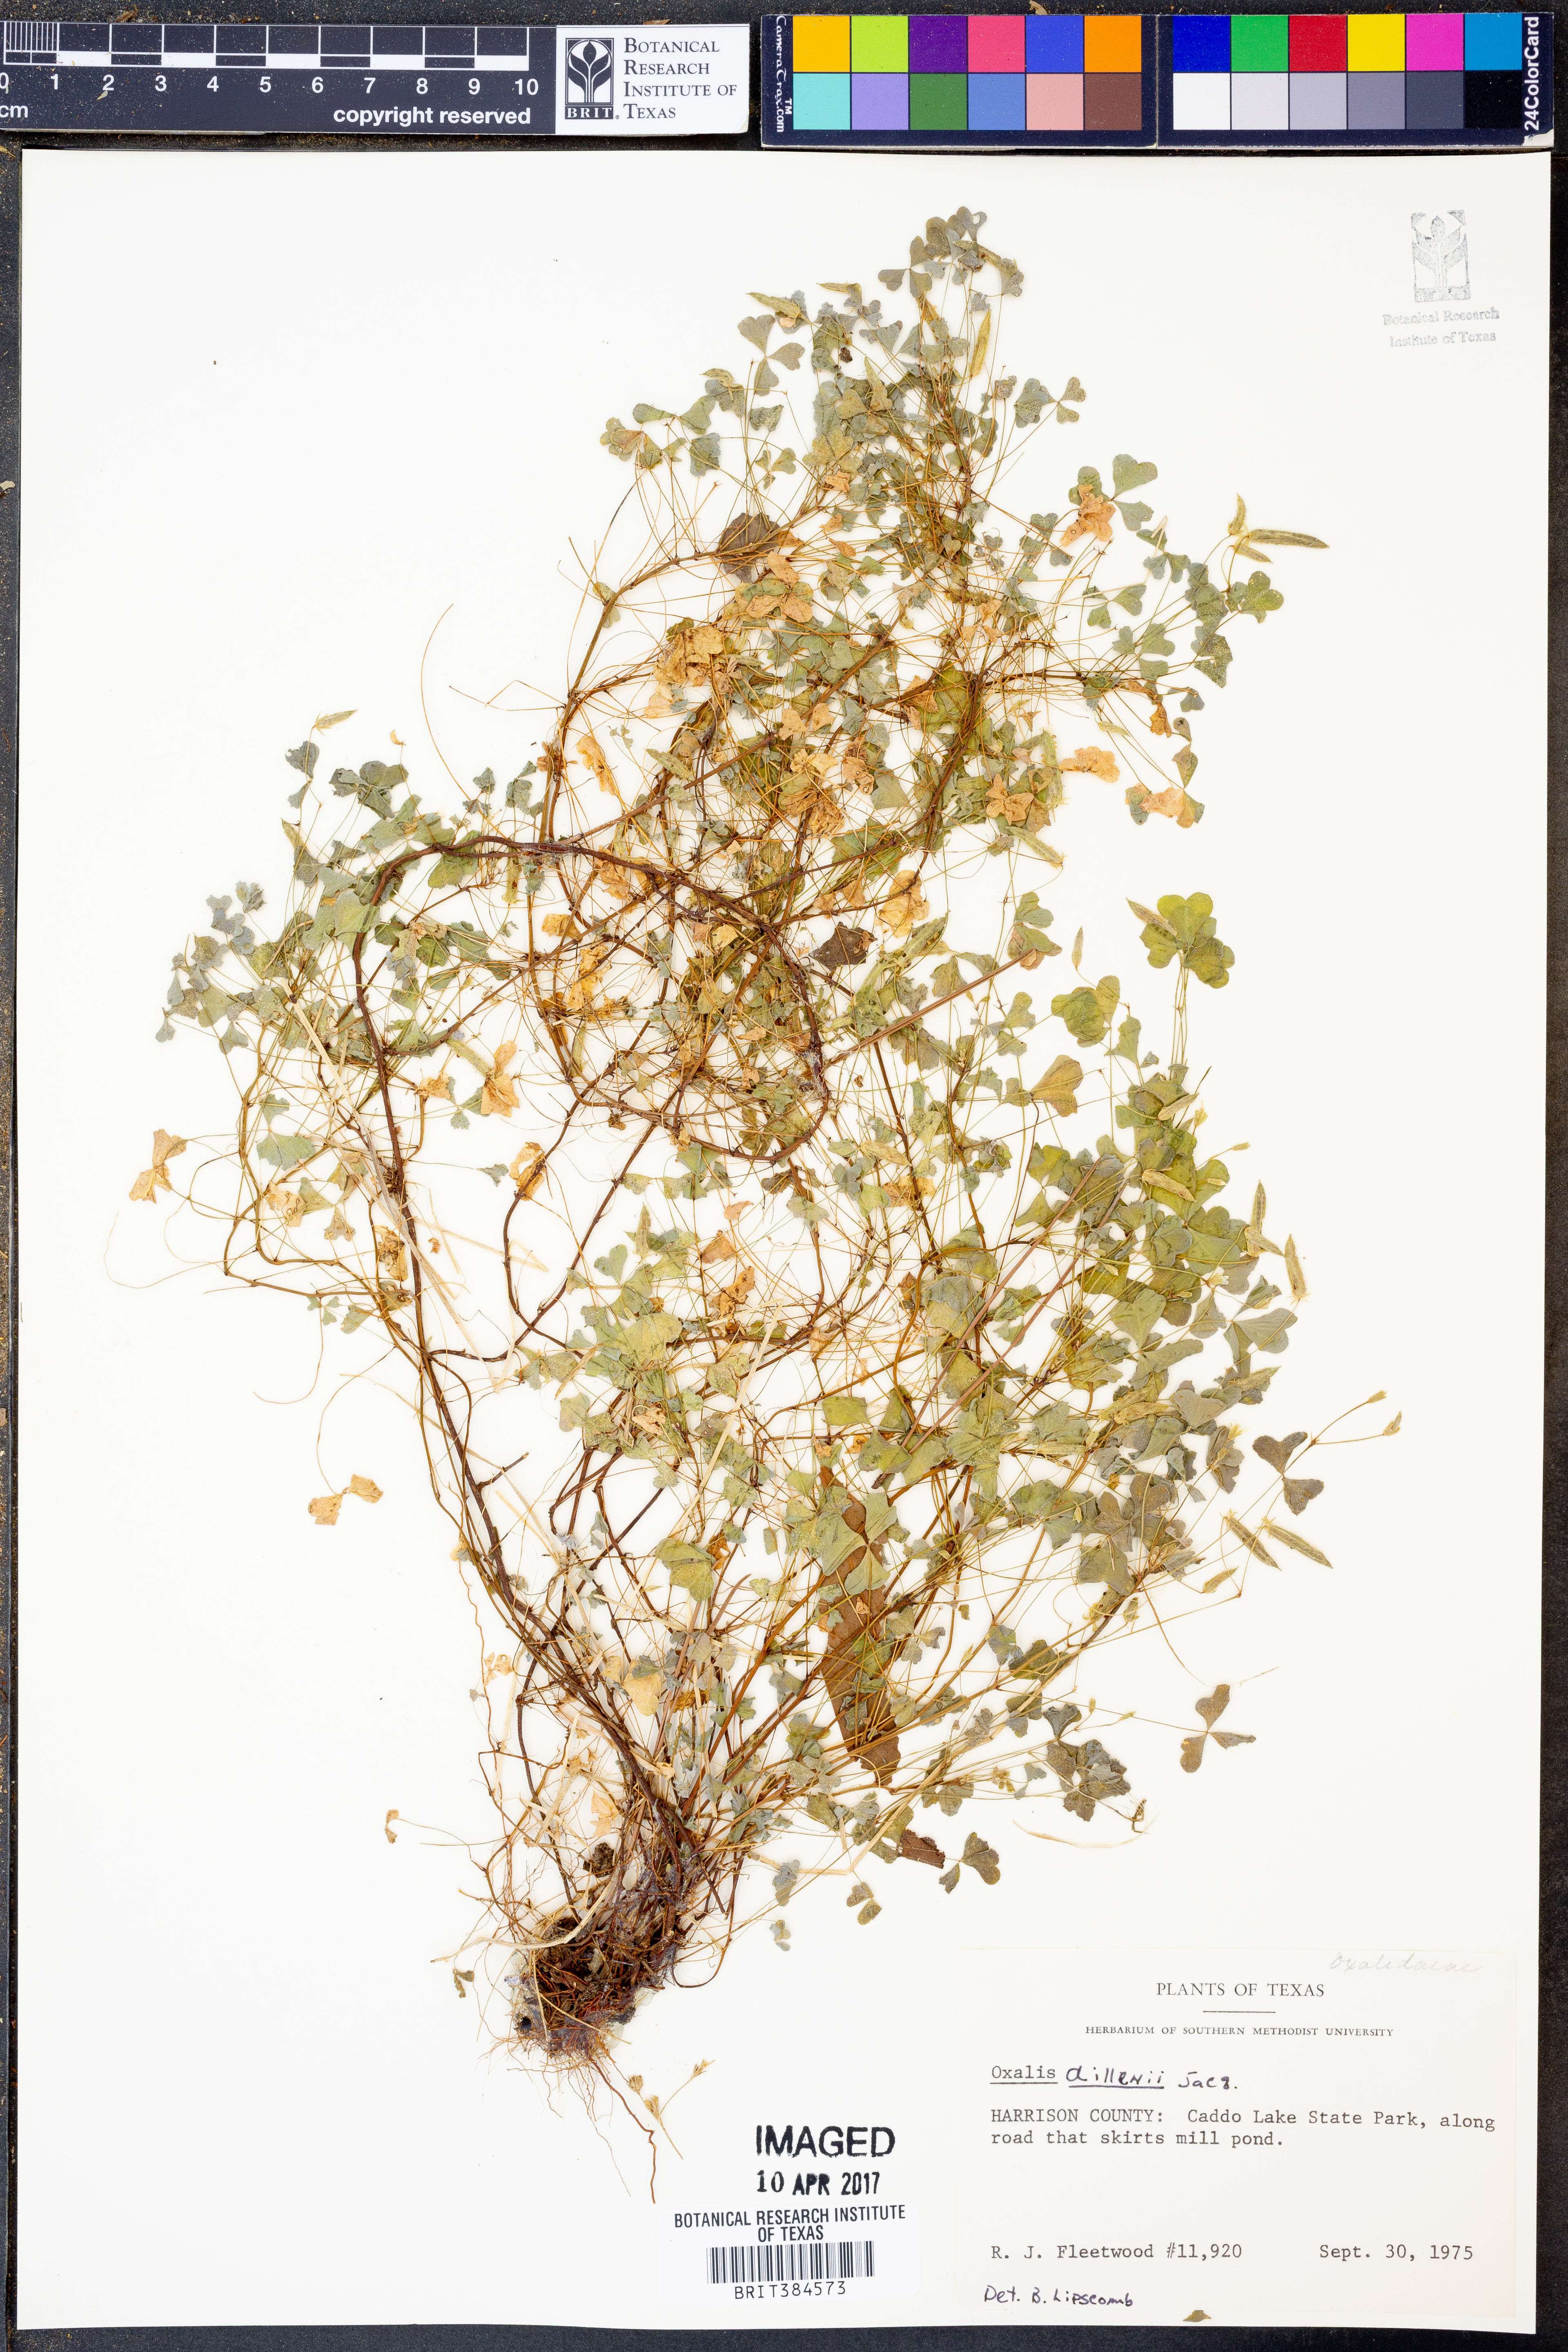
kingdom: Plantae
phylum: Tracheophyta
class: Magnoliopsida
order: Oxalidales
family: Oxalidaceae
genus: Oxalis
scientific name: Oxalis dillenii
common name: Sussex yellow-sorrel
